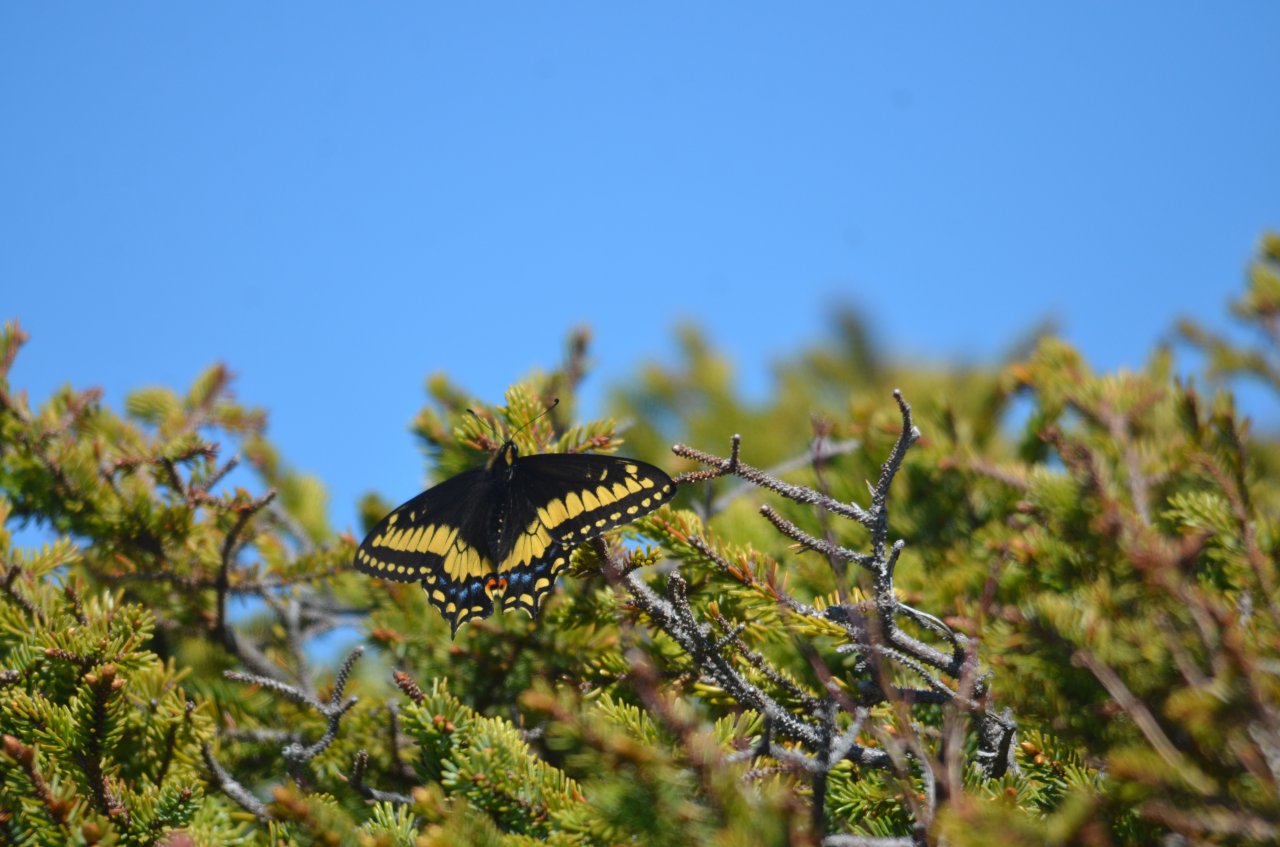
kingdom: Animalia
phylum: Arthropoda
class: Insecta
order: Lepidoptera
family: Papilionidae
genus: Papilio
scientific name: Papilio brevicauda
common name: Short-tailed Swallowtail
